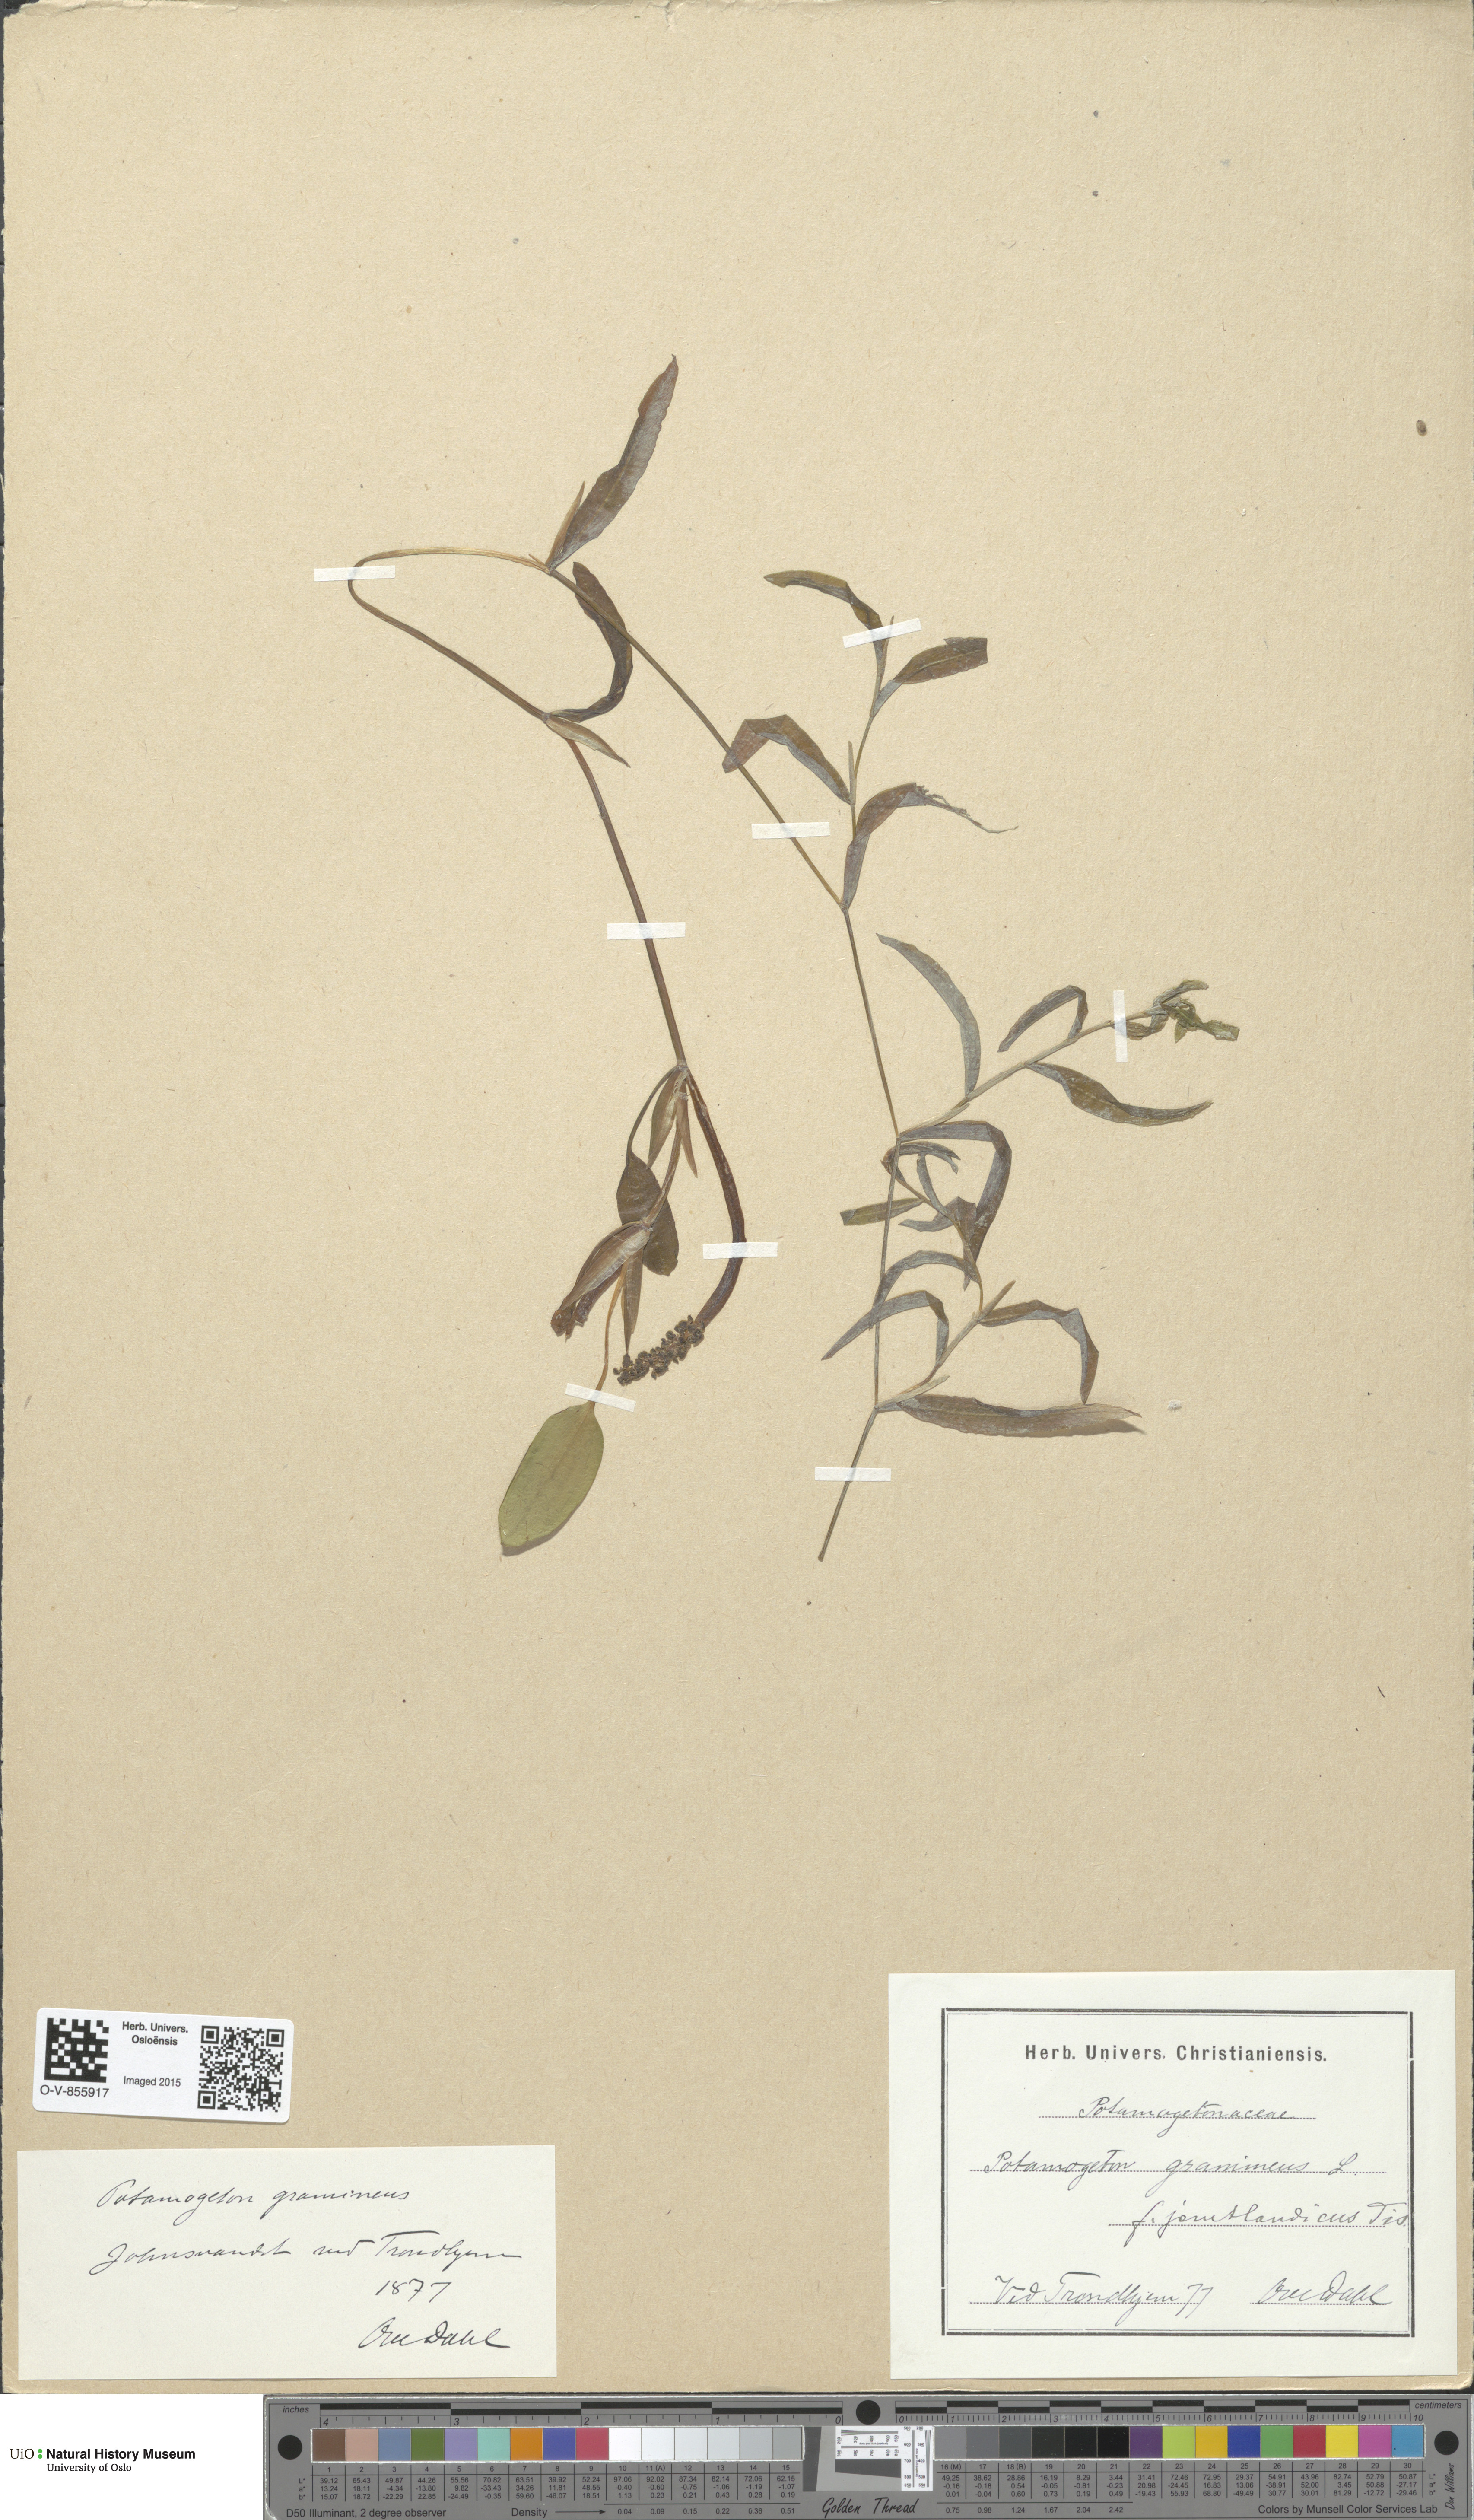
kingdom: Plantae
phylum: Tracheophyta
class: Liliopsida
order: Alismatales
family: Potamogetonaceae
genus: Potamogeton
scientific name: Potamogeton gramineus
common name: Various-leaved pondweed
